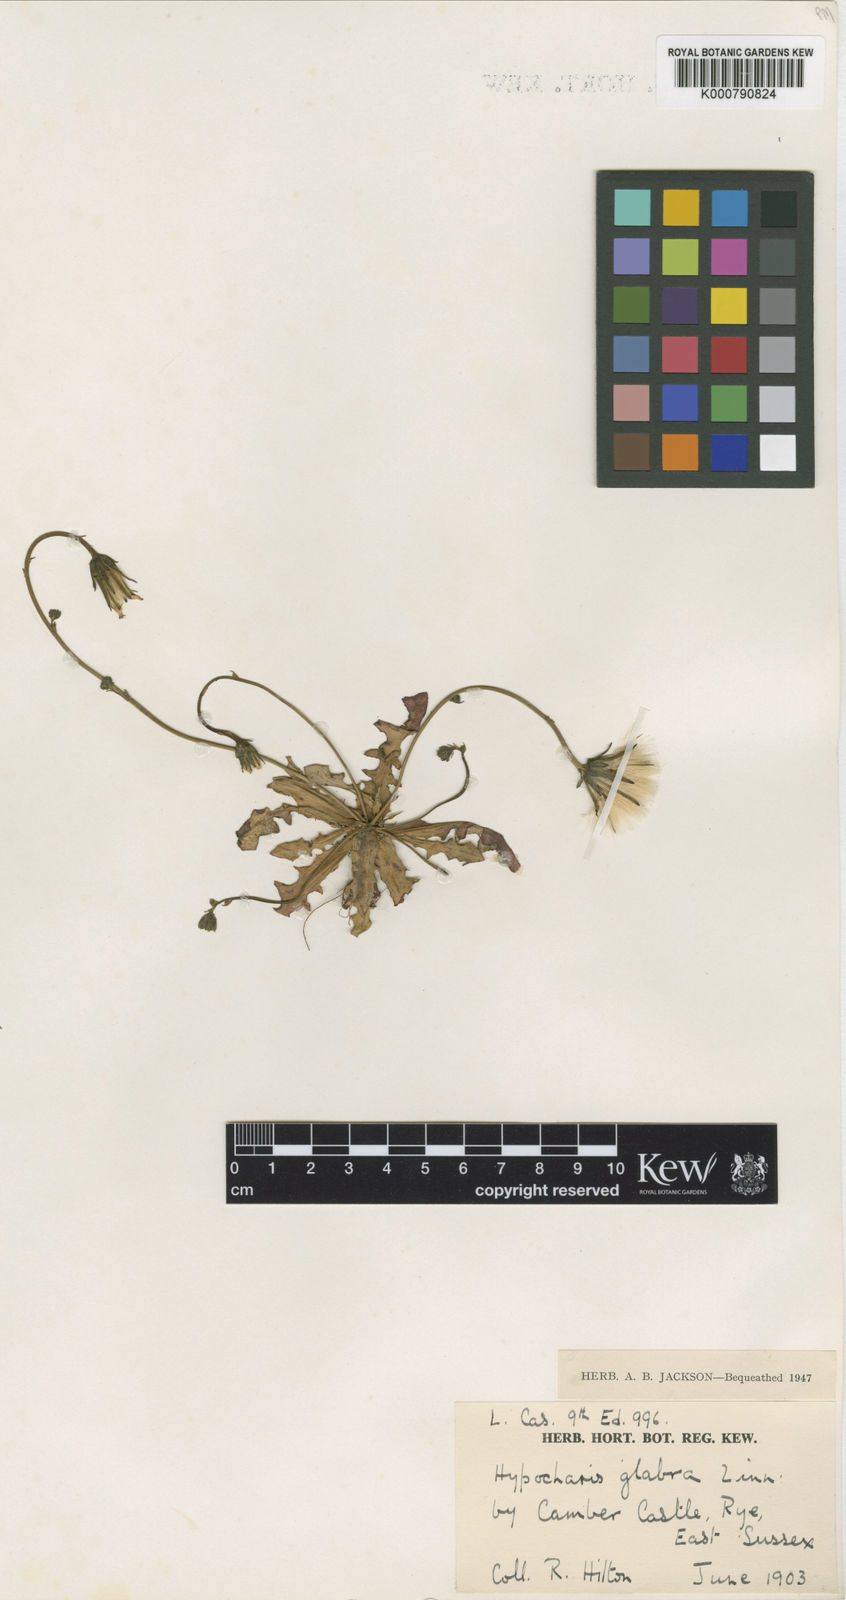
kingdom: Plantae
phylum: Tracheophyta
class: Magnoliopsida
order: Asterales
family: Asteraceae
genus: Hypochaeris
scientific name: Hypochaeris glabra
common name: Smooth catsear
